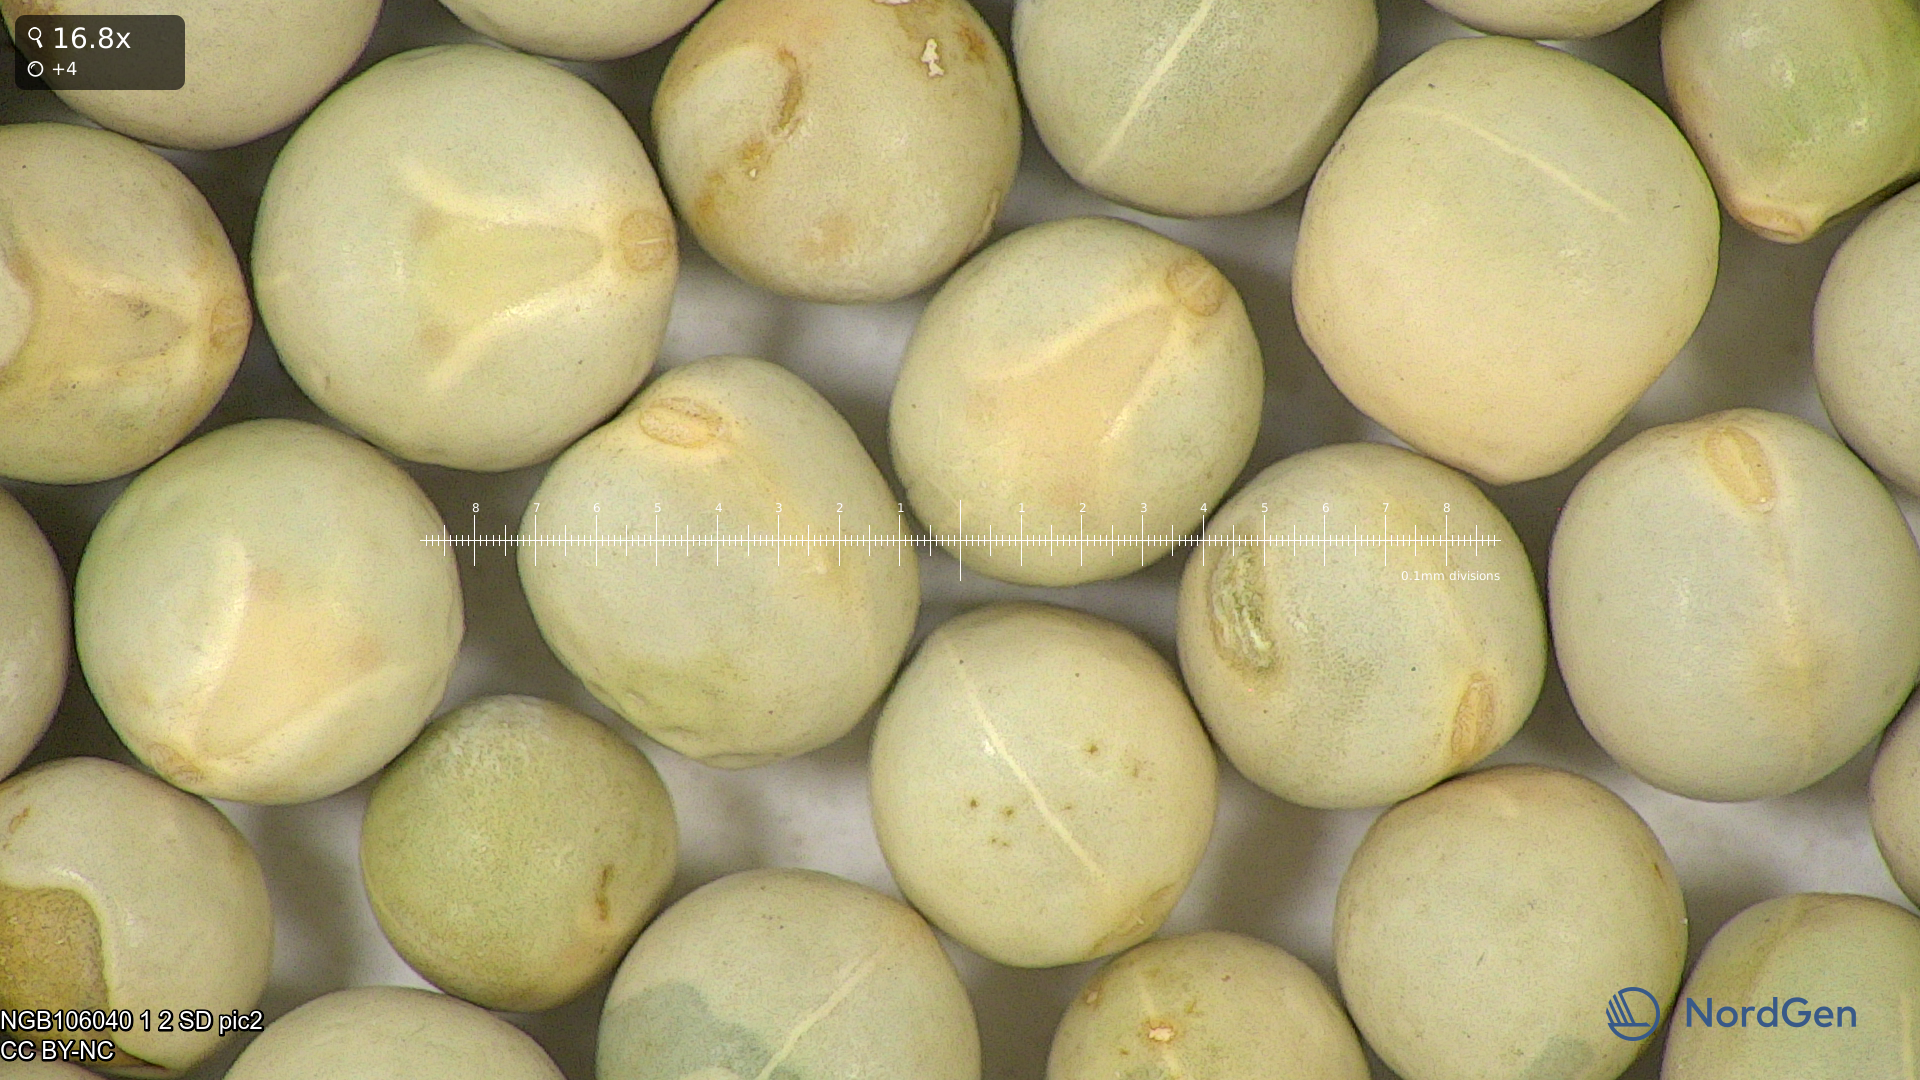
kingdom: Plantae
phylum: Tracheophyta
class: Magnoliopsida
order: Fabales
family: Fabaceae
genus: Lathyrus
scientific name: Lathyrus oleraceus
